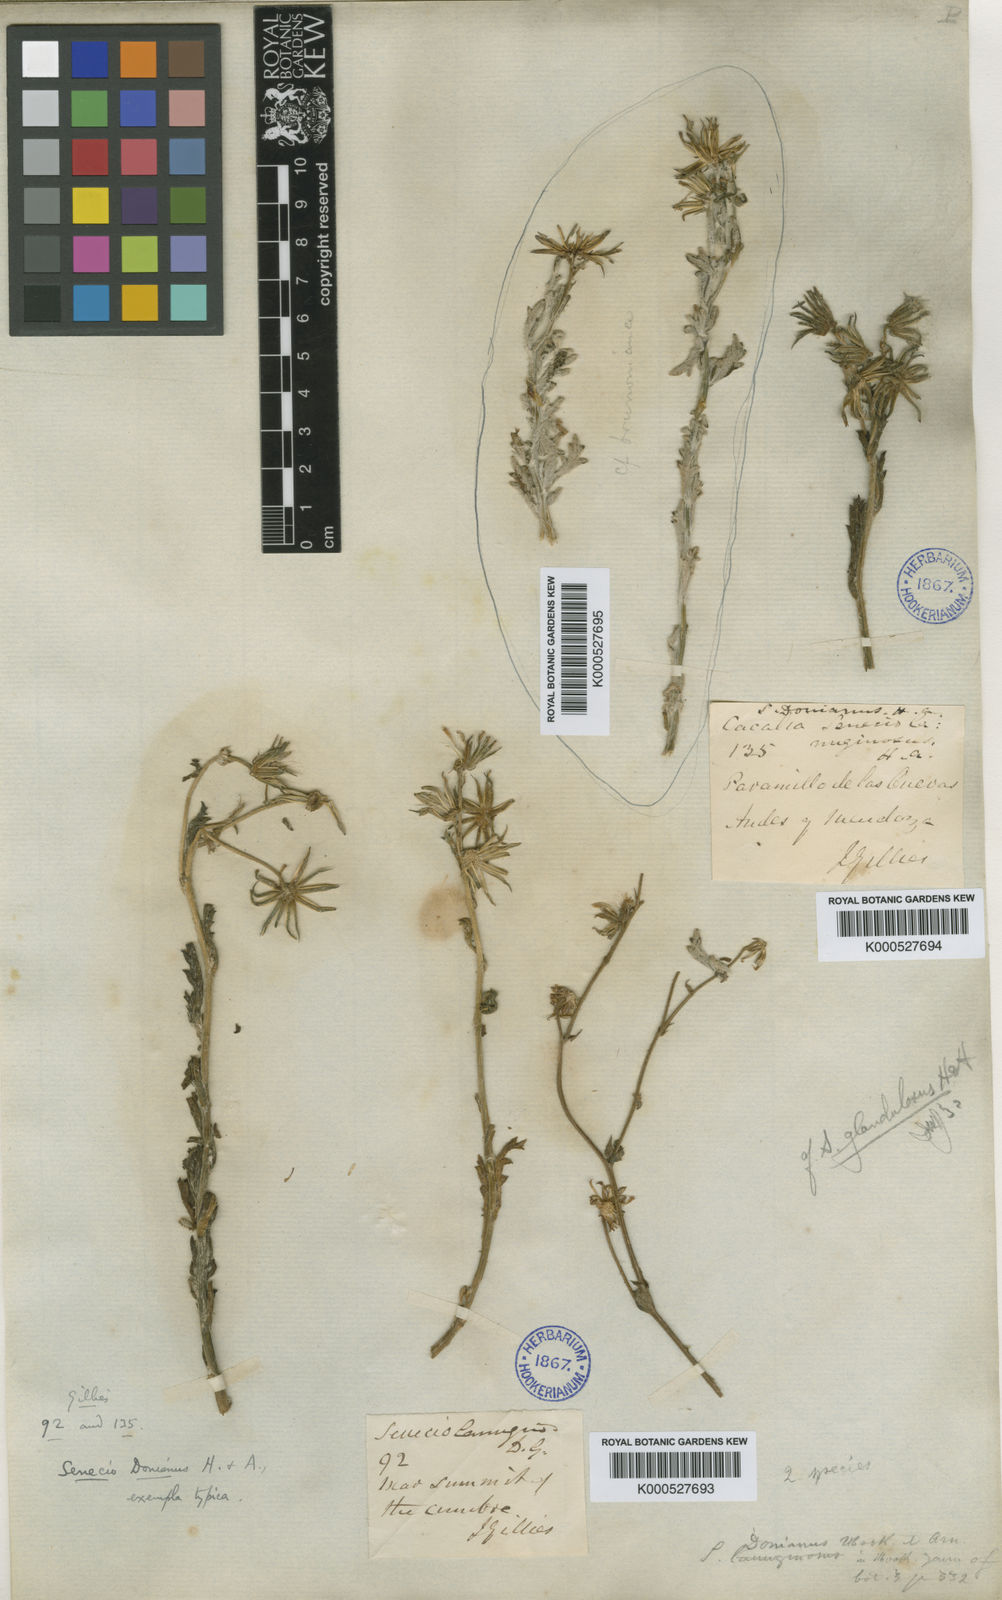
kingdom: Plantae
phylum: Tracheophyta
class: Magnoliopsida
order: Asterales
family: Asteraceae
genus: Senecio
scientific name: Senecio donianus
